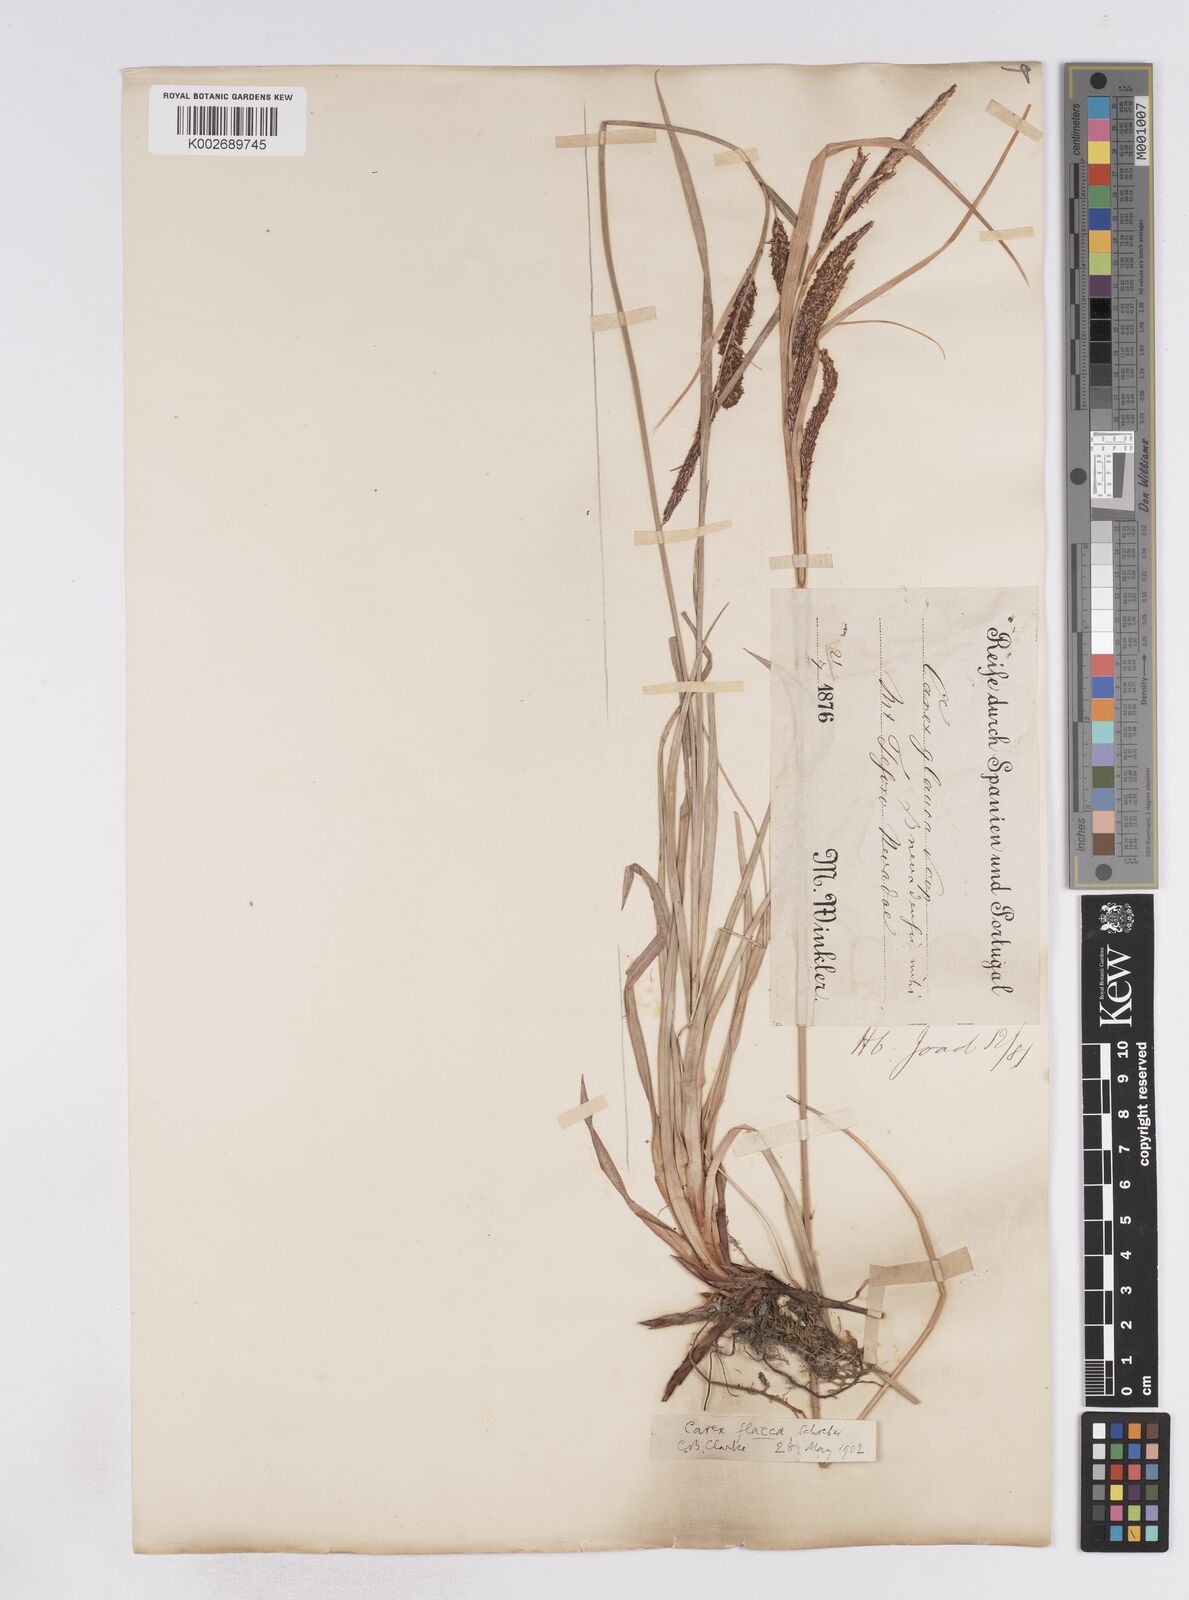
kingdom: Plantae
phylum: Tracheophyta
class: Liliopsida
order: Poales
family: Cyperaceae
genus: Carex
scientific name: Carex flacca
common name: Glaucous sedge
